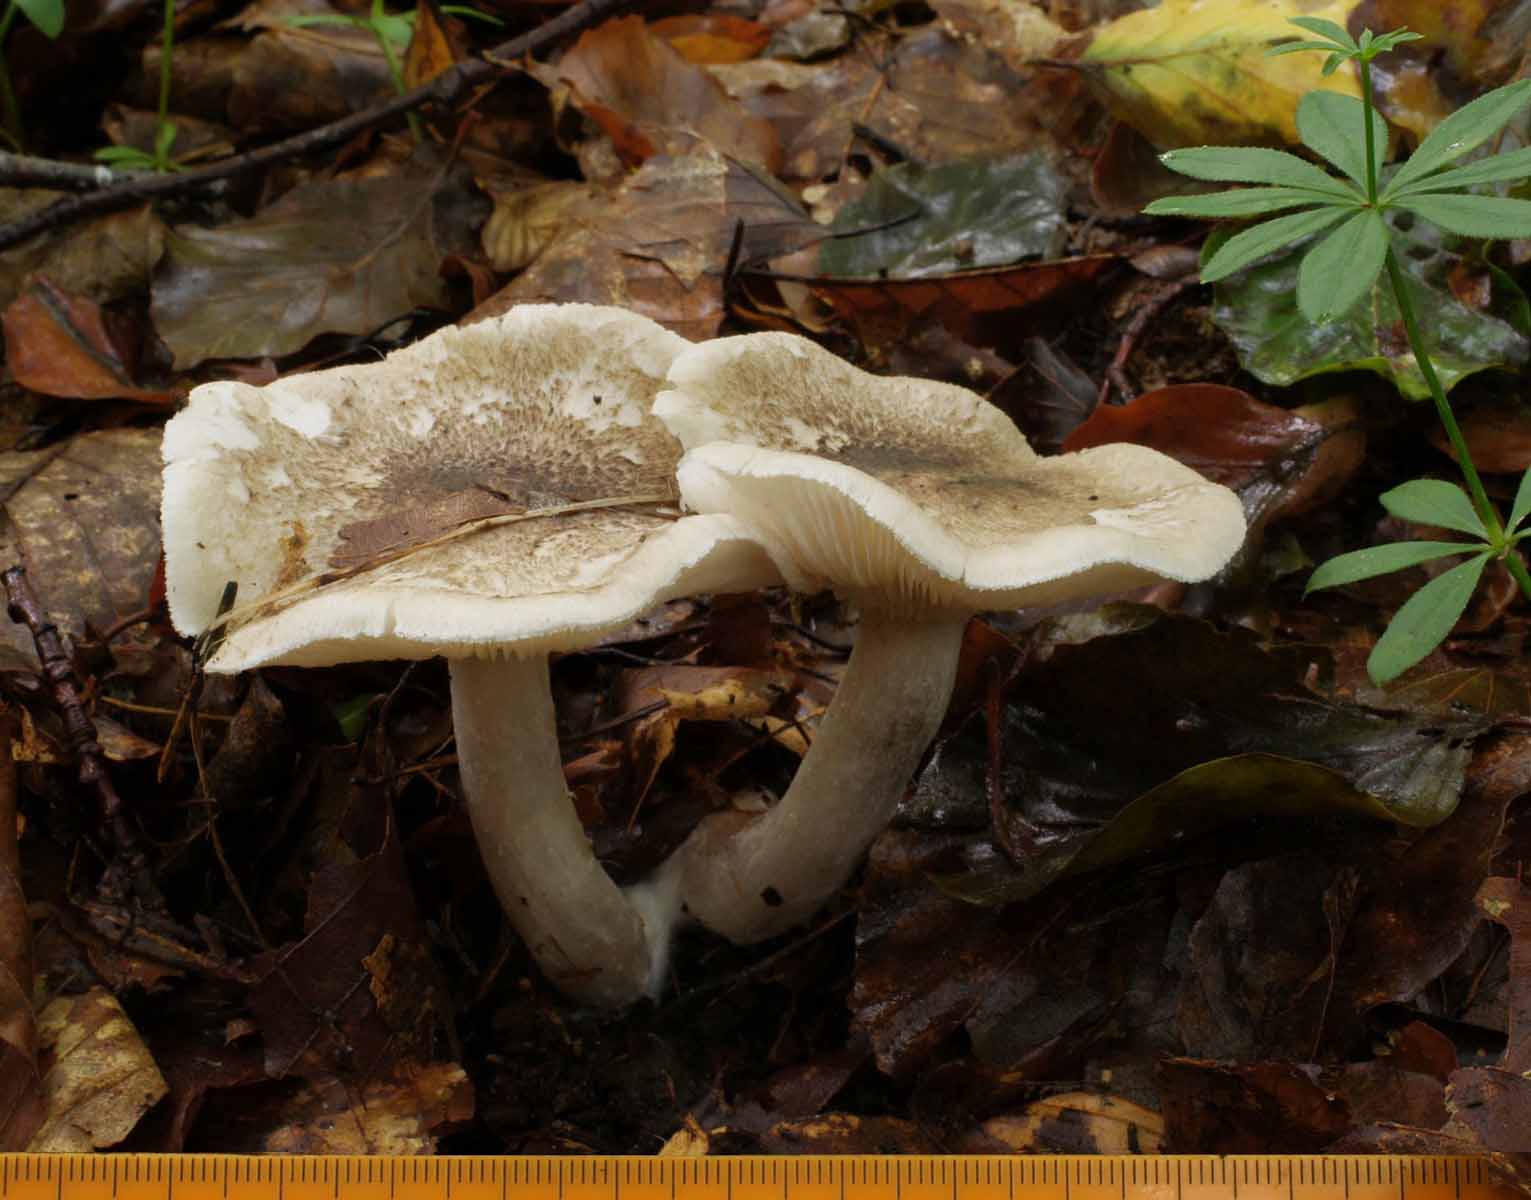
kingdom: Fungi
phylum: Basidiomycota
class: Agaricomycetes
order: Agaricales
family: Tricholomataceae
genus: Tricholoma
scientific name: Tricholoma scalpturatum
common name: gulplettet ridderhat
